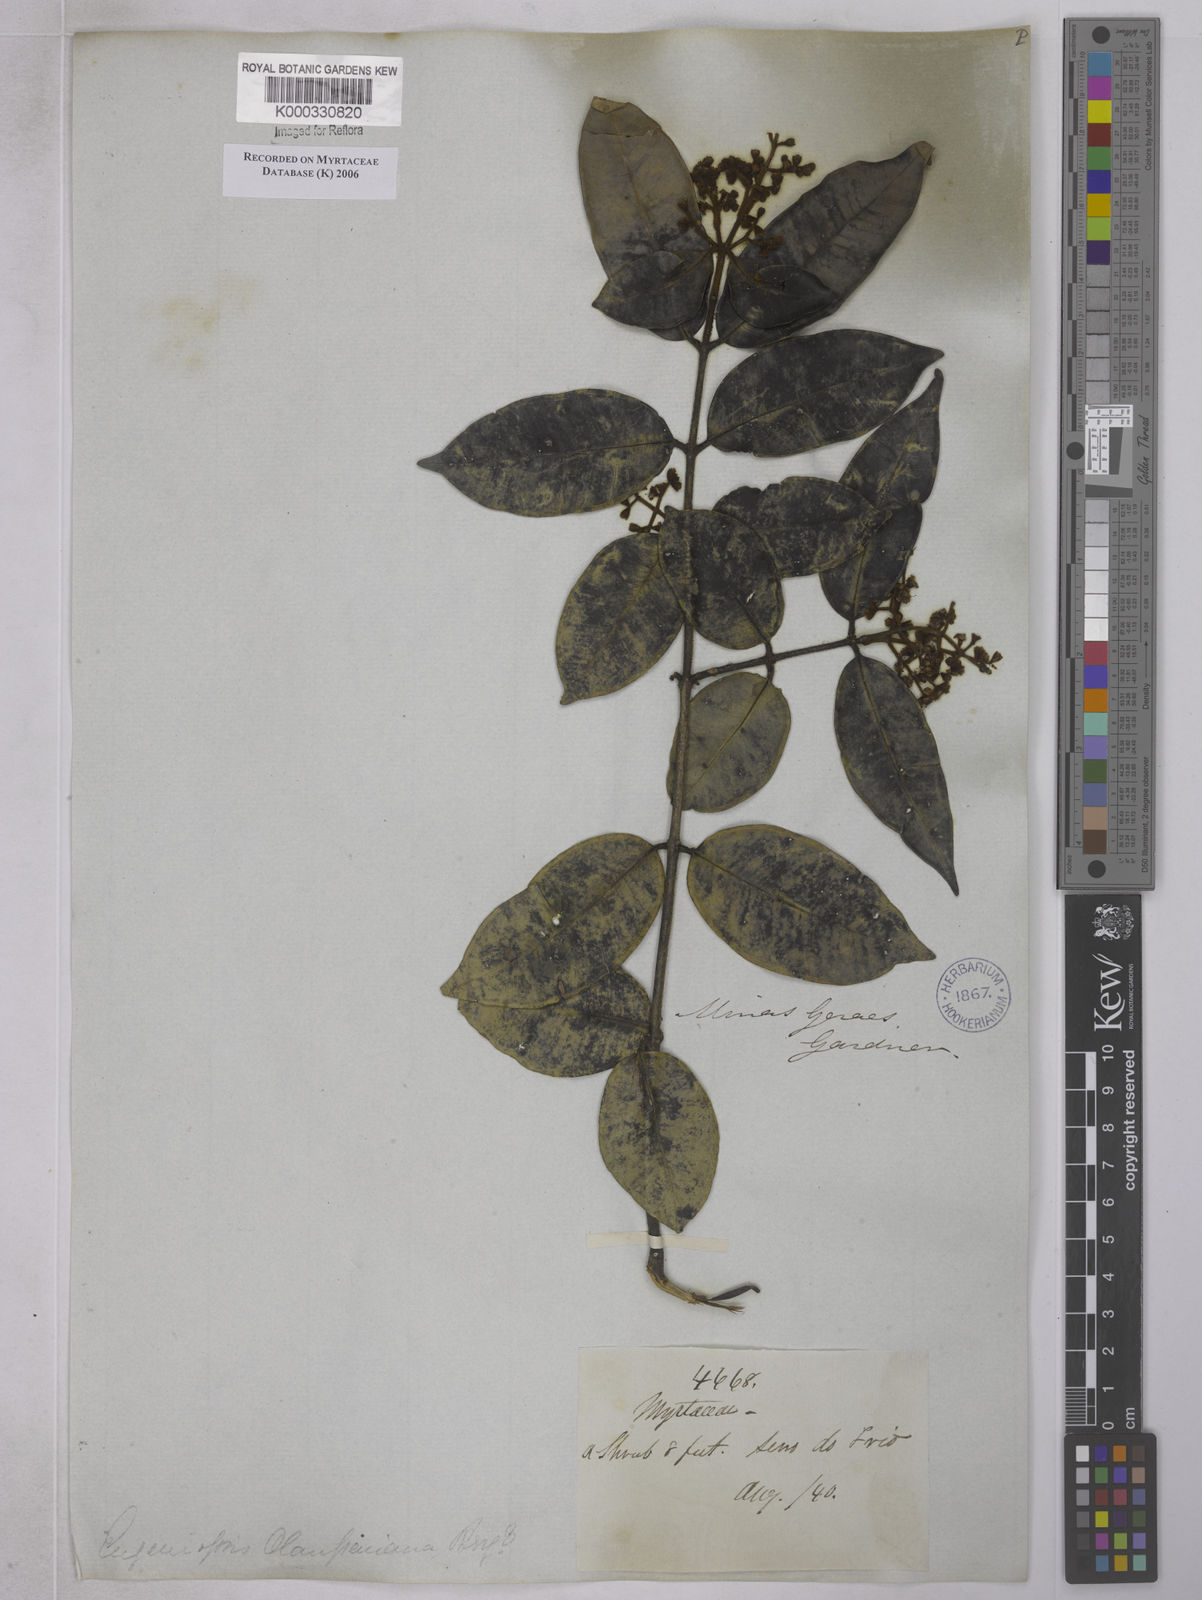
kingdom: Plantae
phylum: Tracheophyta
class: Magnoliopsida
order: Myrtales
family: Myrtaceae
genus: Marlierea
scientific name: Marlierea clausseniana
